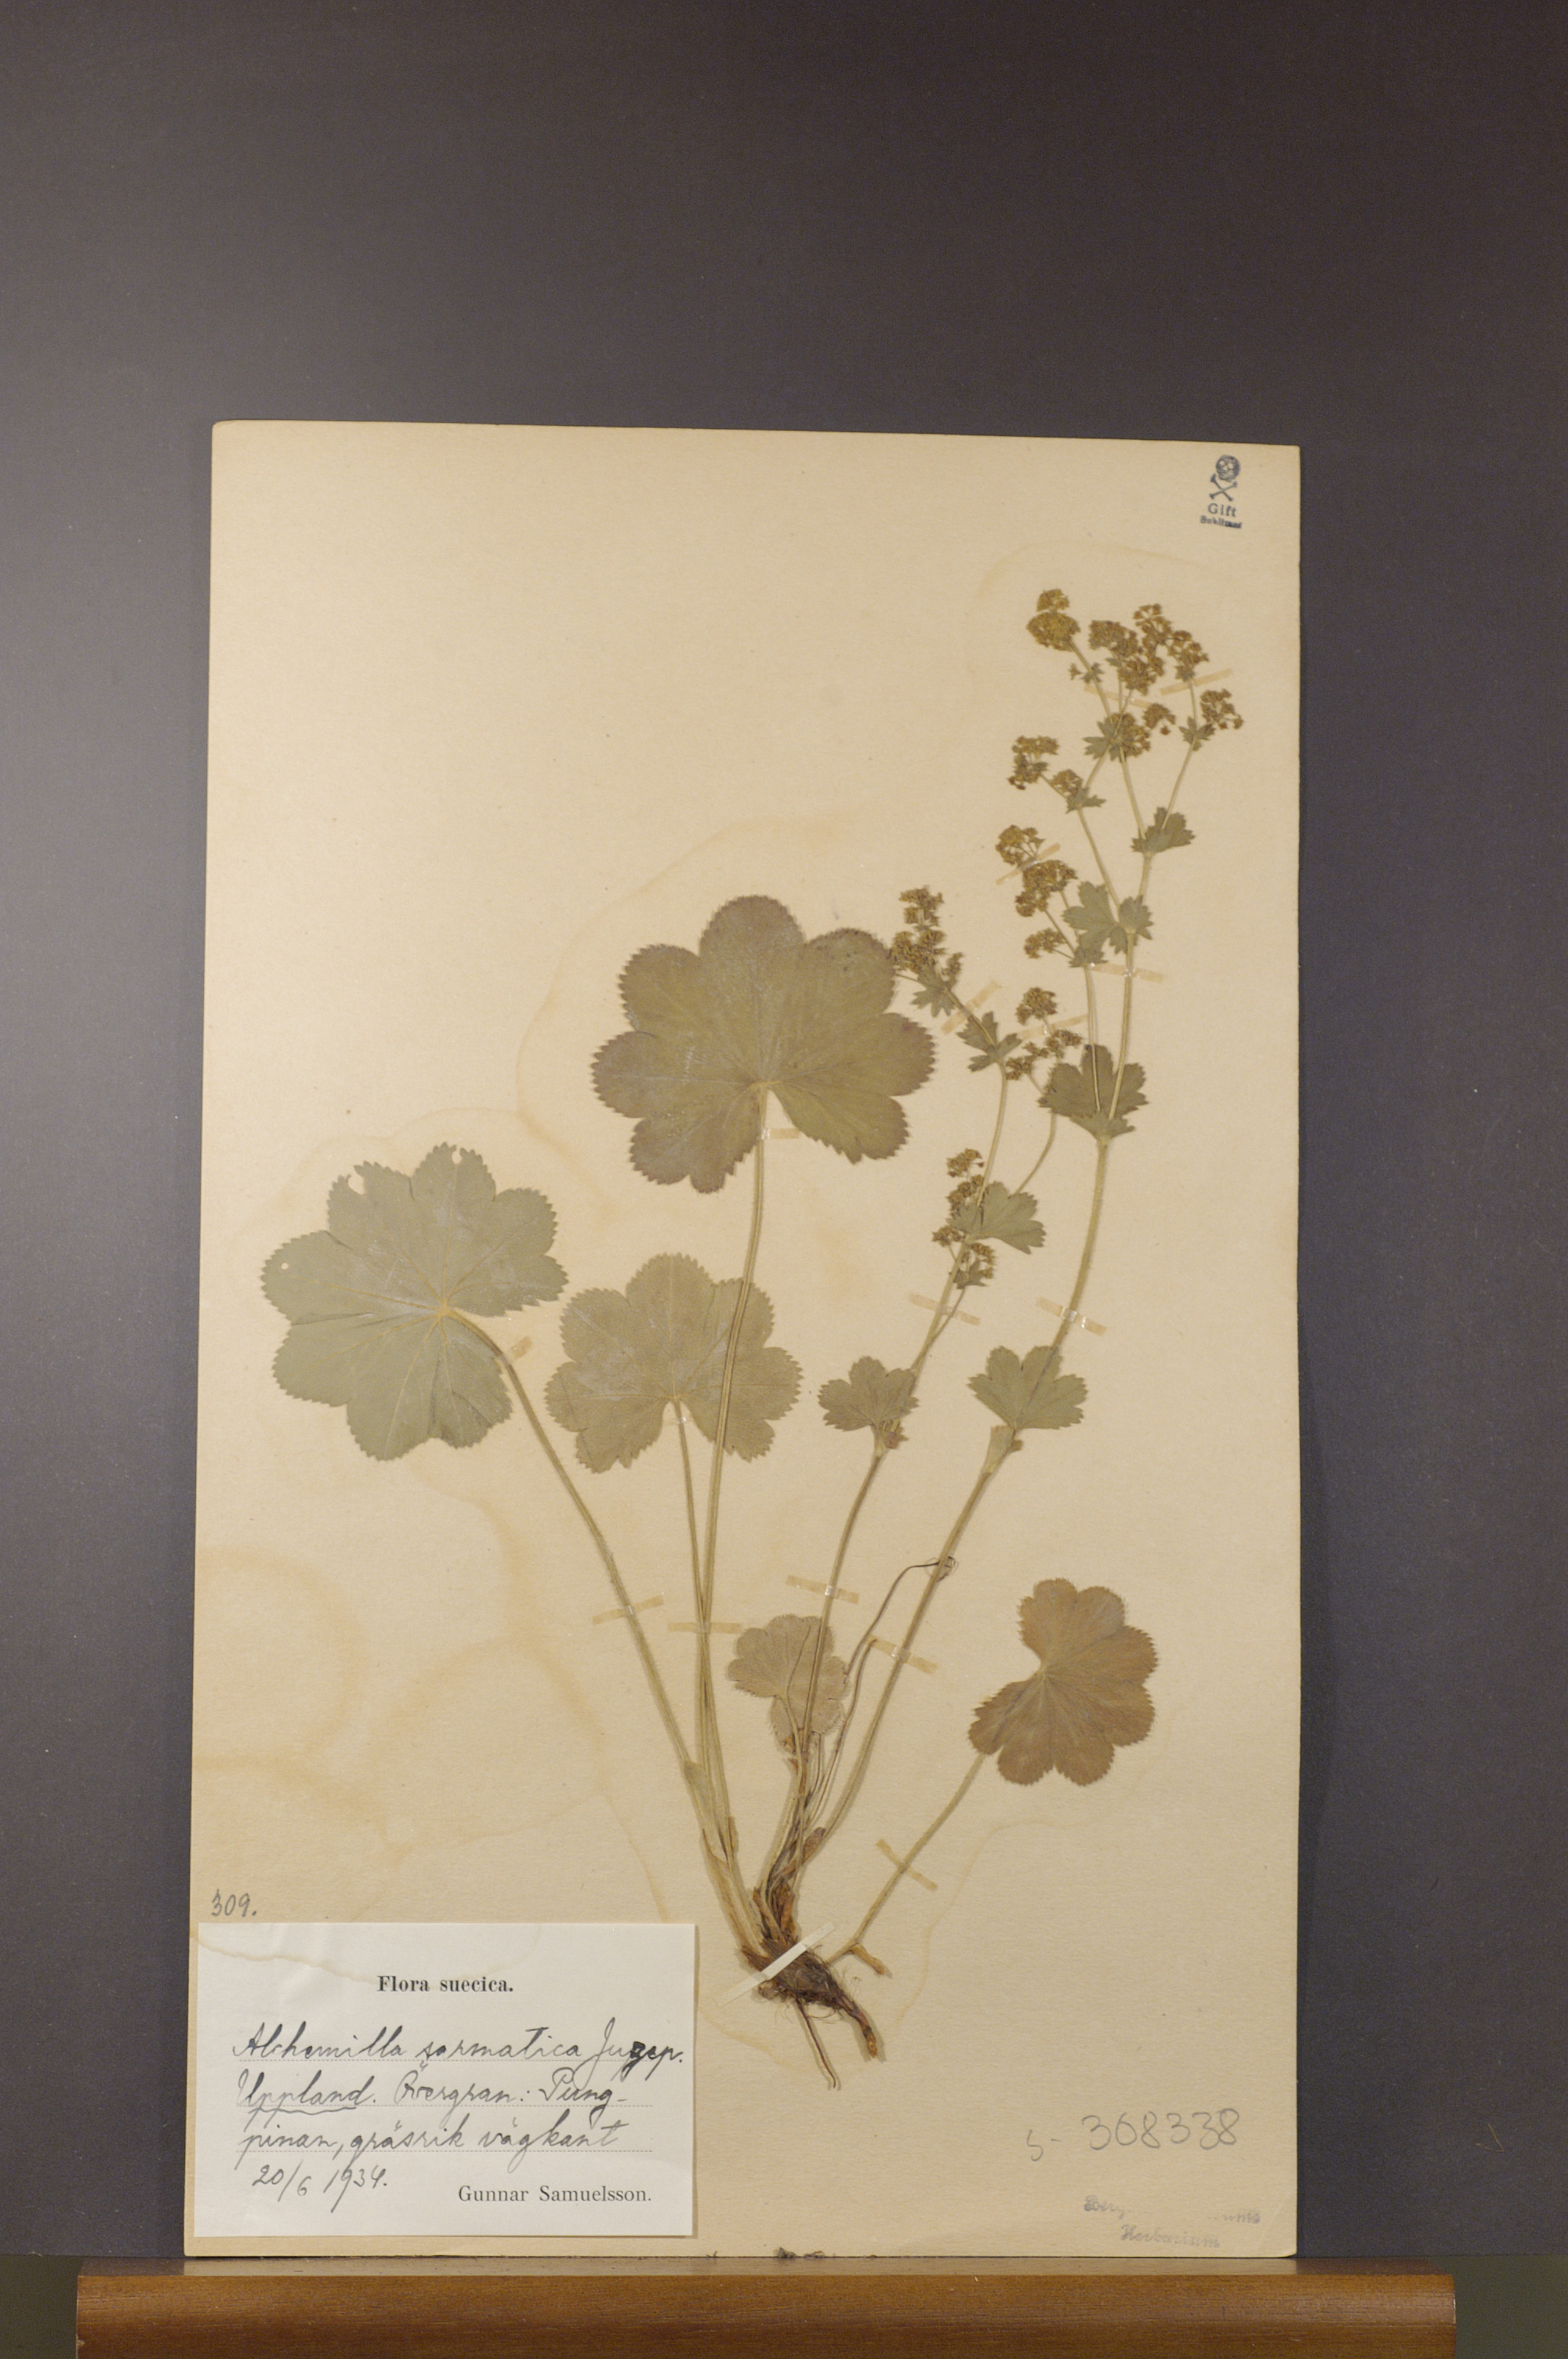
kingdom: Plantae
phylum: Tracheophyta
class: Magnoliopsida
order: Rosales
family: Rosaceae
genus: Alchemilla
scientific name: Alchemilla sarmatica
